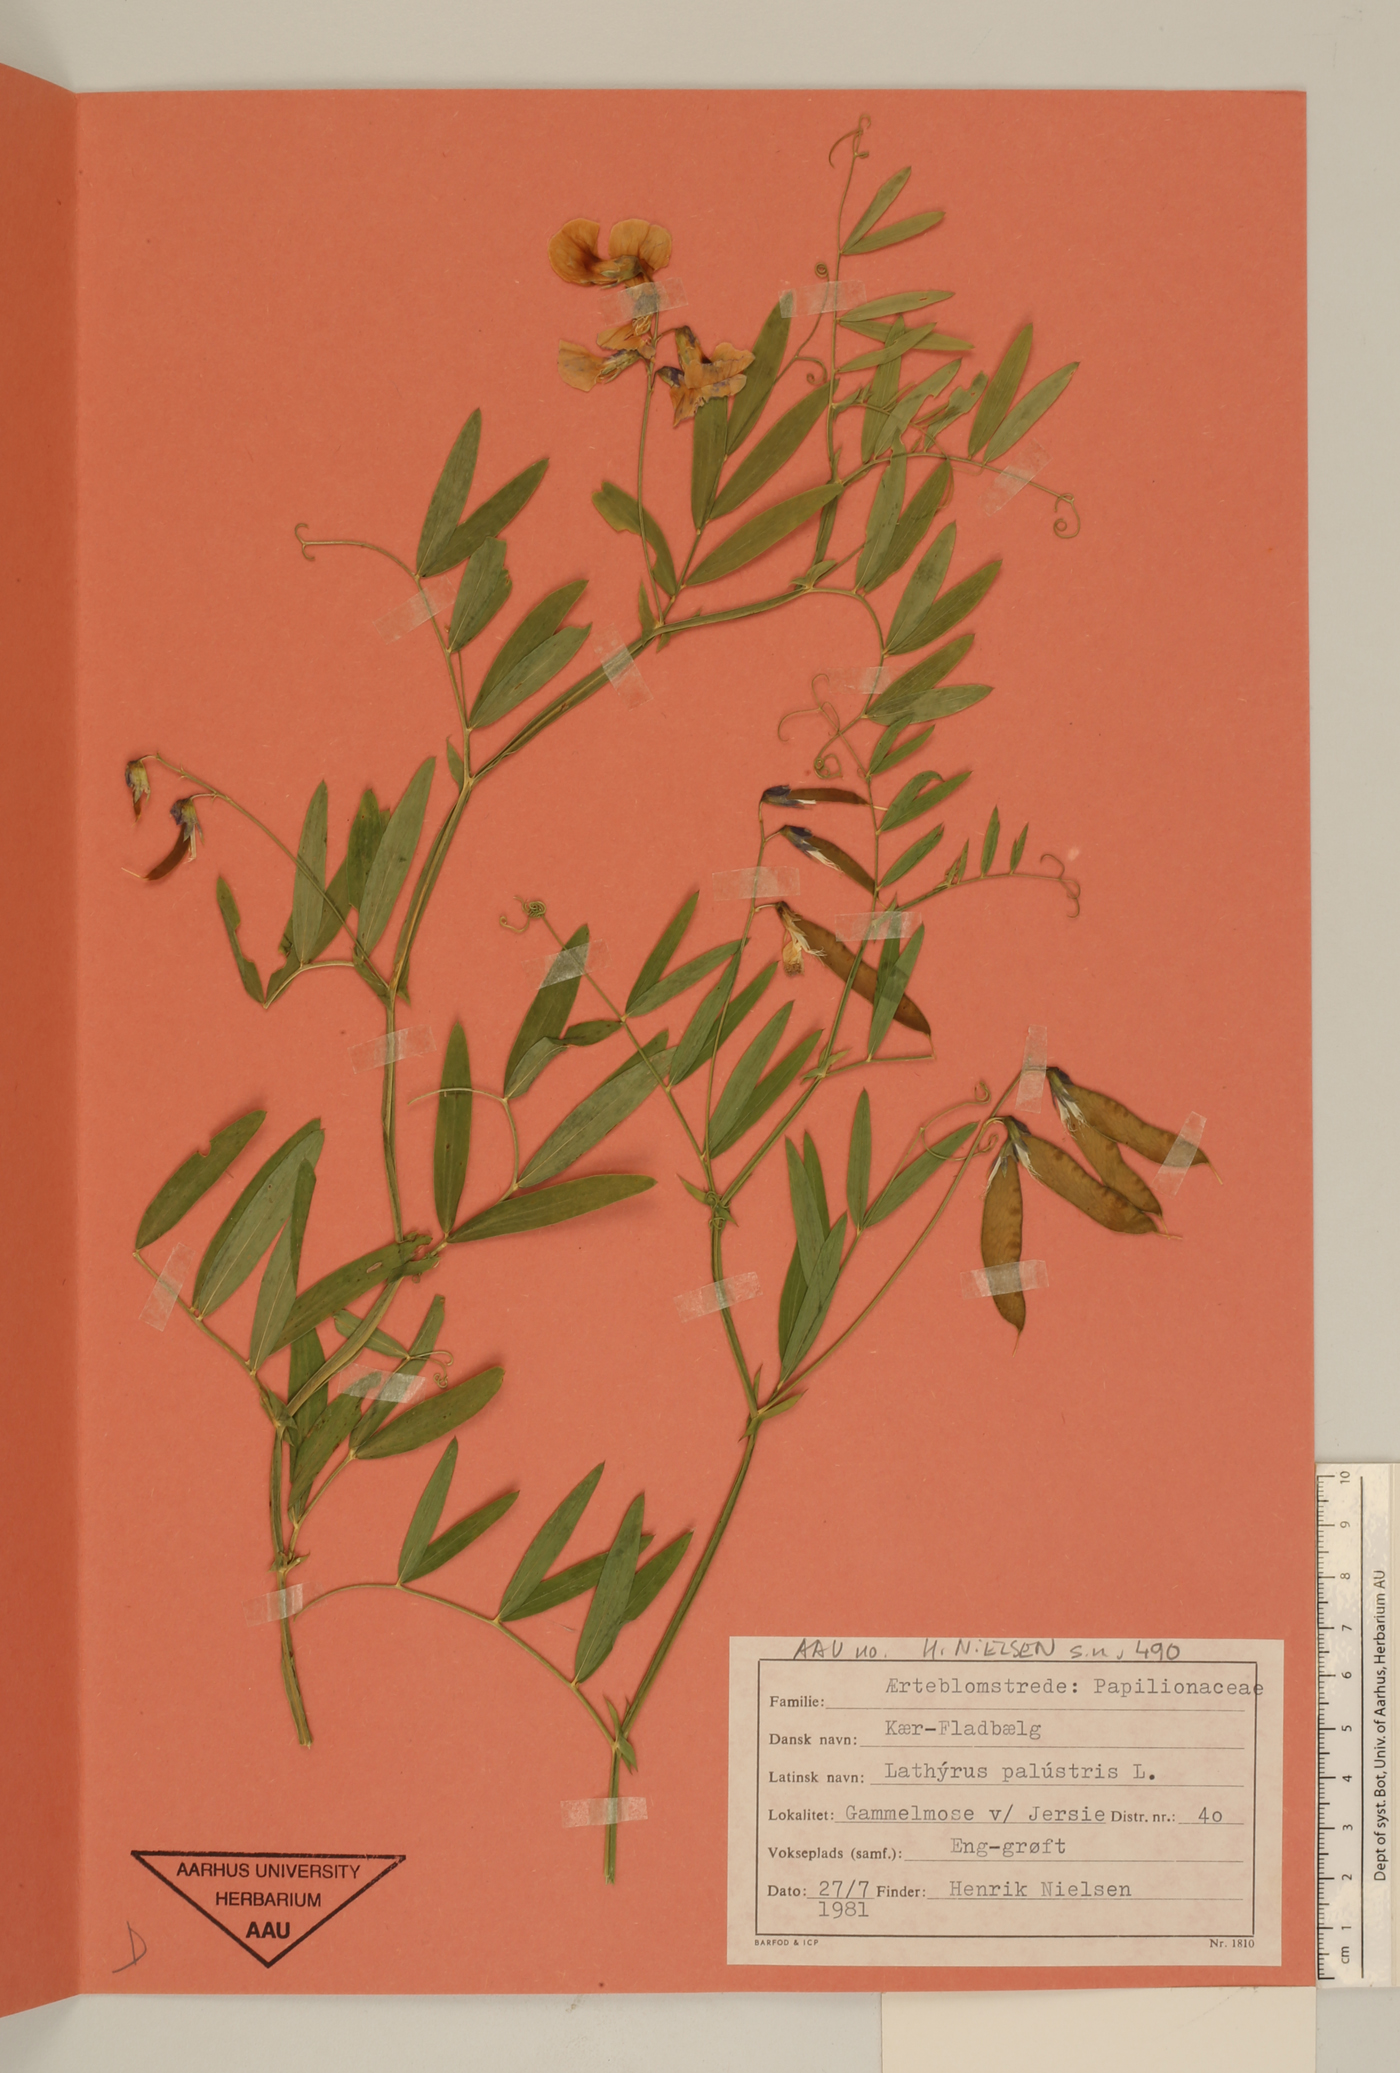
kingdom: Plantae
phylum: Tracheophyta
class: Magnoliopsida
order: Fabales
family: Fabaceae
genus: Lathyrus
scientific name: Lathyrus palustris
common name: Marsh pea
